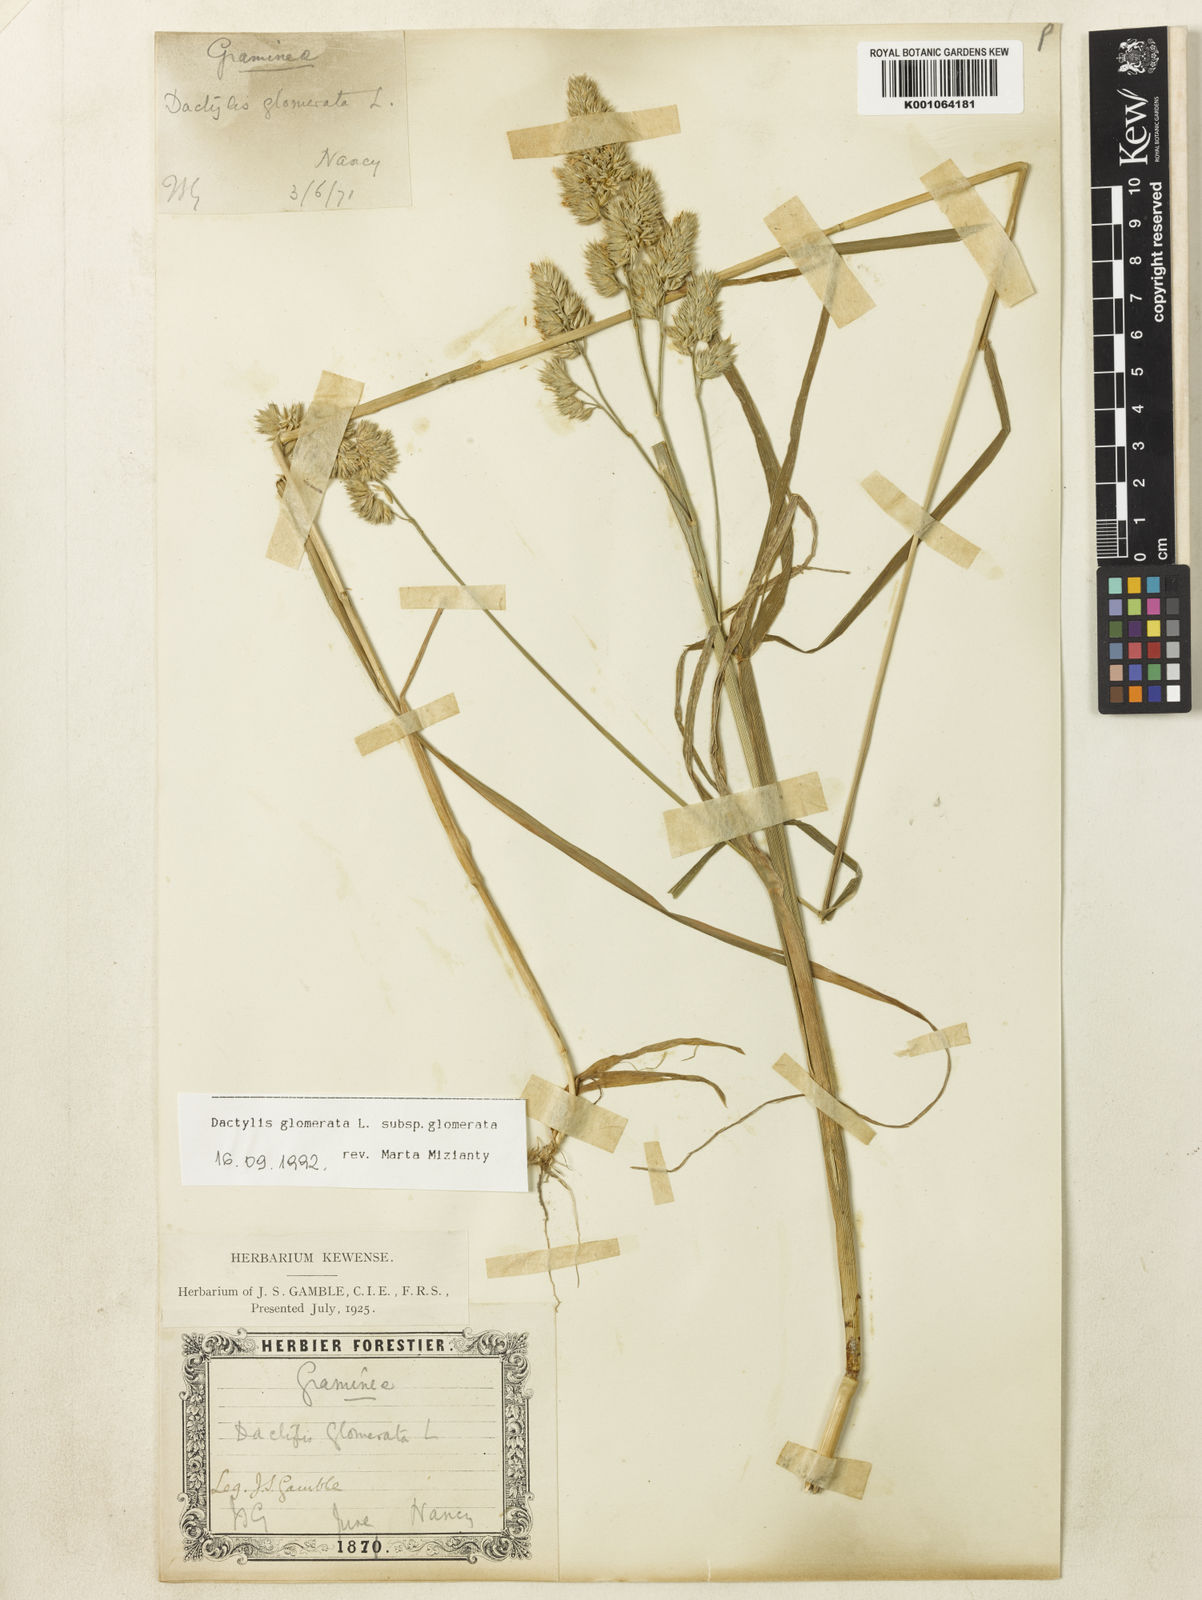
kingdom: Plantae
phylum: Tracheophyta
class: Liliopsida
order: Poales
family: Poaceae
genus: Dactylis
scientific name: Dactylis glomerata
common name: Orchardgrass
